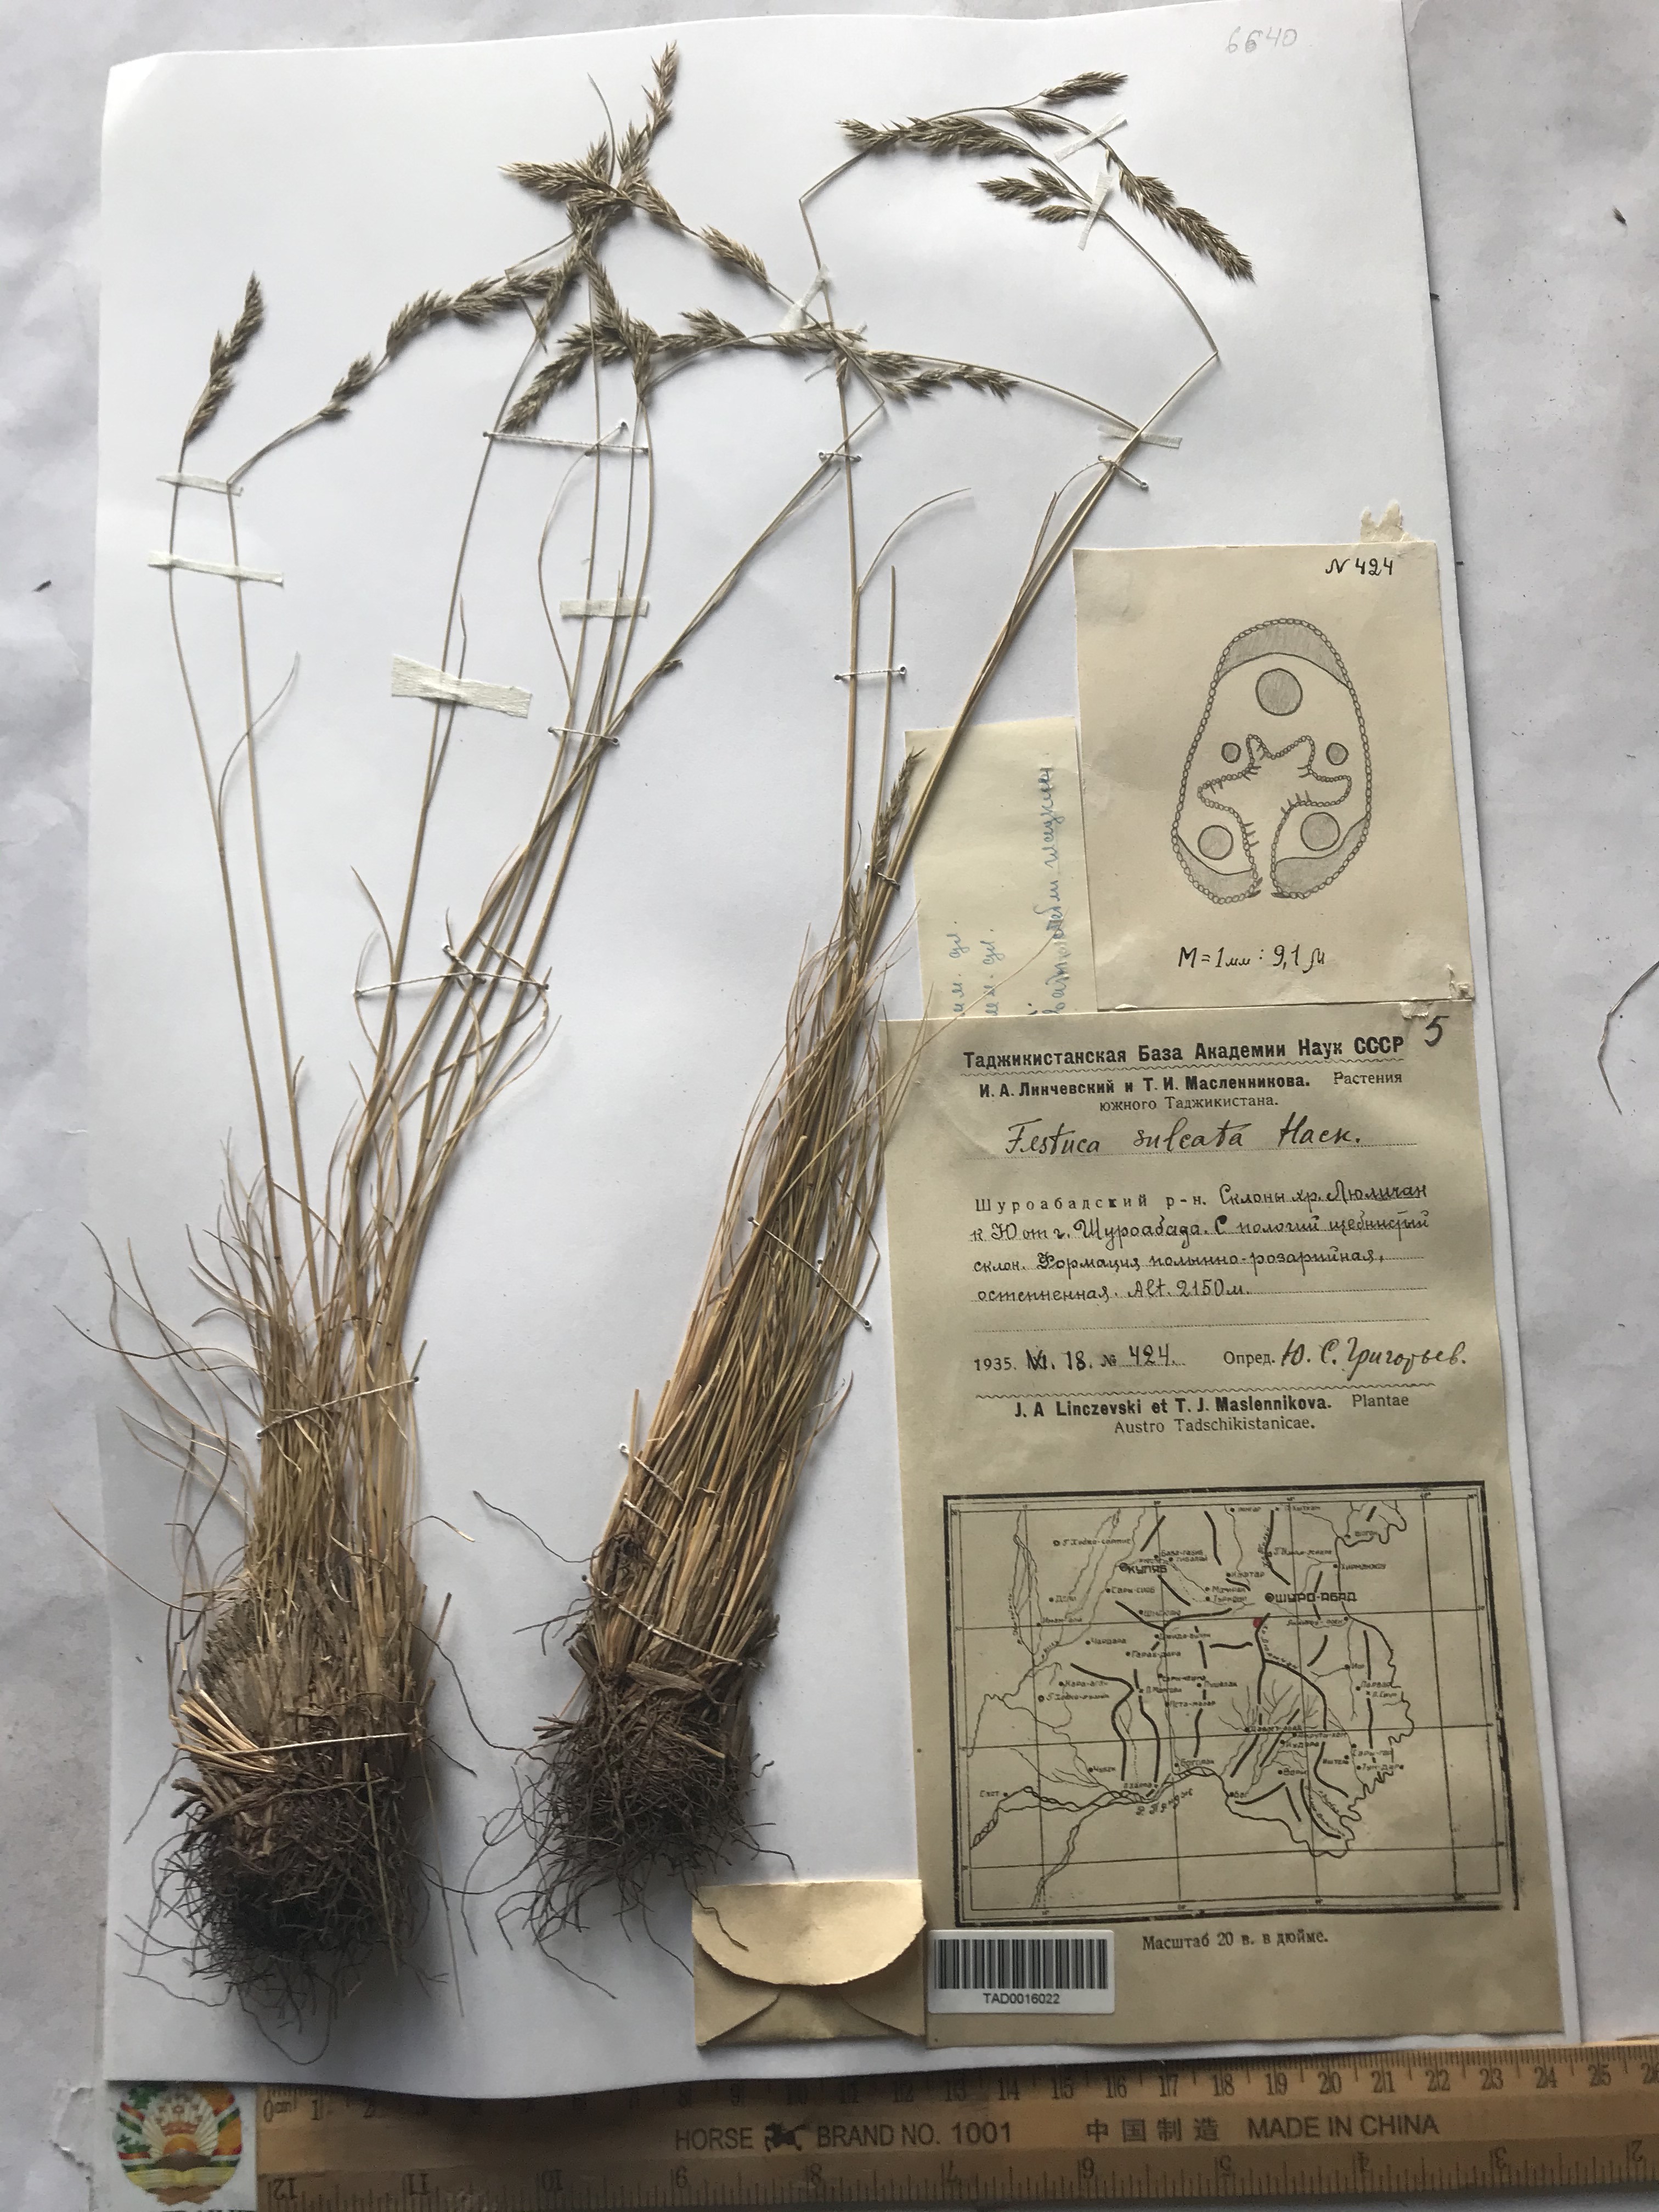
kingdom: Plantae
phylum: Tracheophyta
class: Liliopsida
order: Poales
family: Poaceae
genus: Festuca
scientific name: Festuca sulcata
